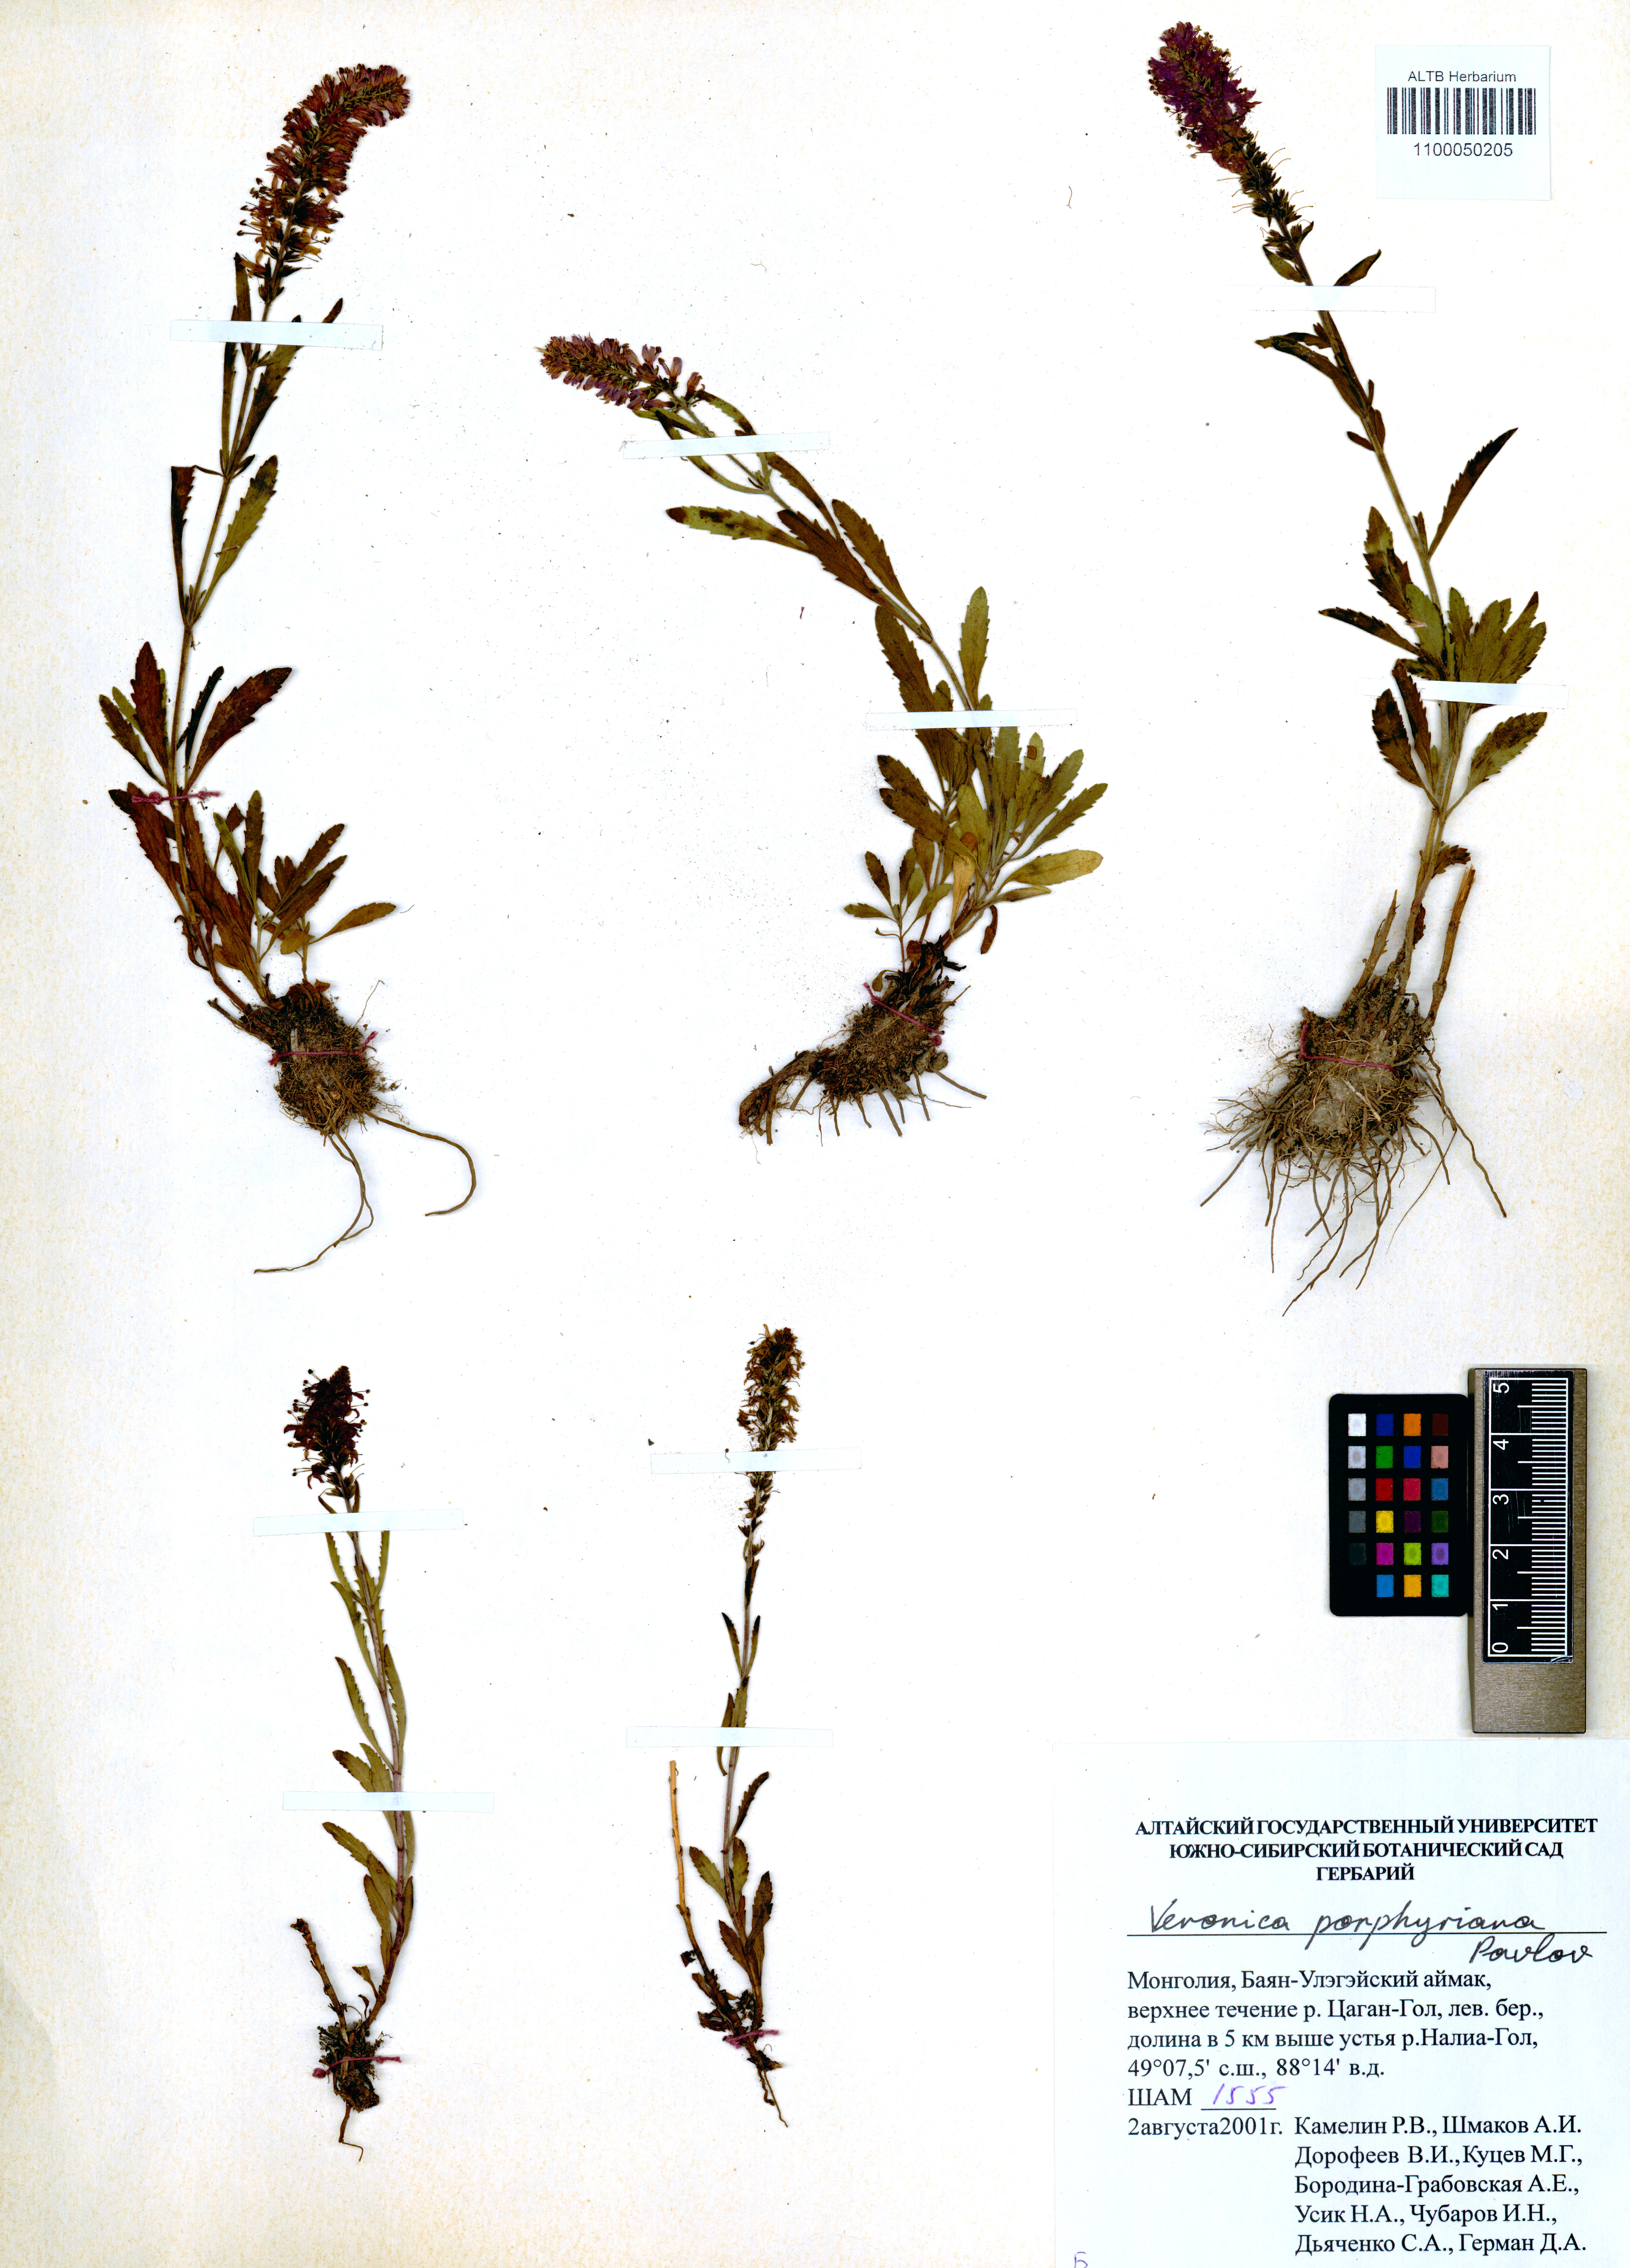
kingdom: Plantae
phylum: Tracheophyta
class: Magnoliopsida
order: Lamiales
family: Plantaginaceae
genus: Veronica
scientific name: Veronica porphyriana
